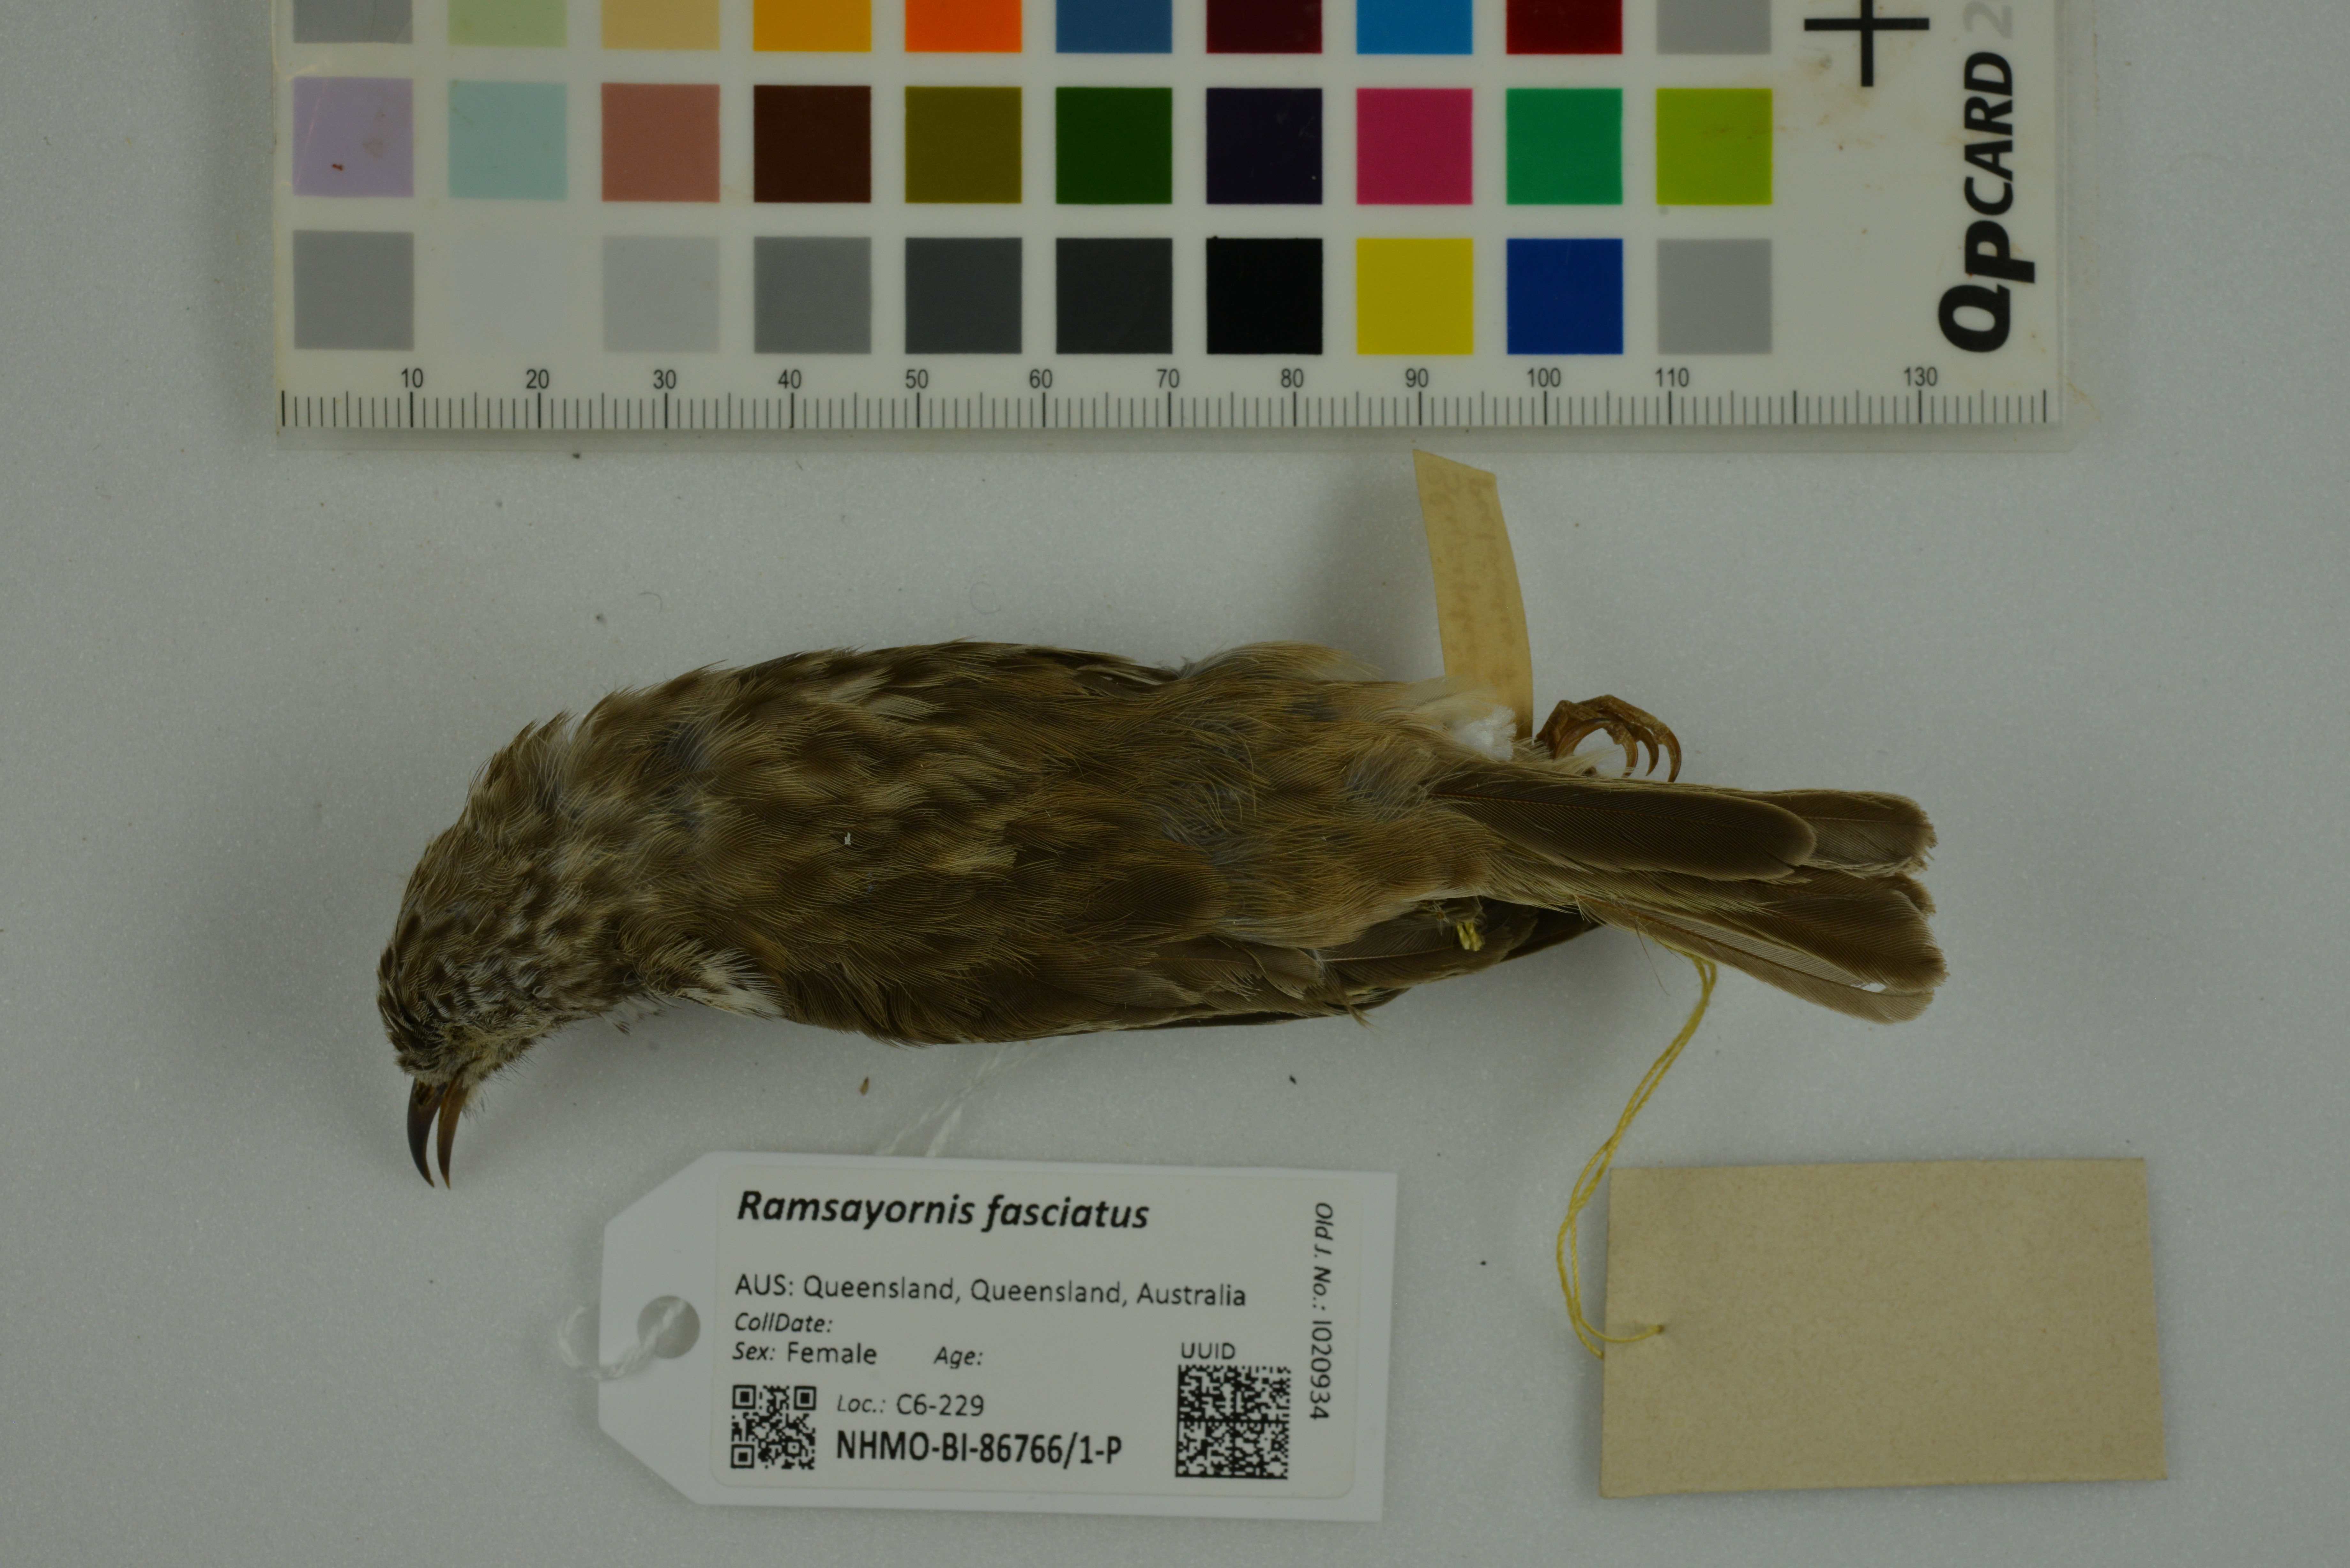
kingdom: Animalia
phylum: Chordata
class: Aves
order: Passeriformes
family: Meliphagidae
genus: Ramsayornis
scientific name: Ramsayornis fasciatus
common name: Bar-breasted honeyeater
